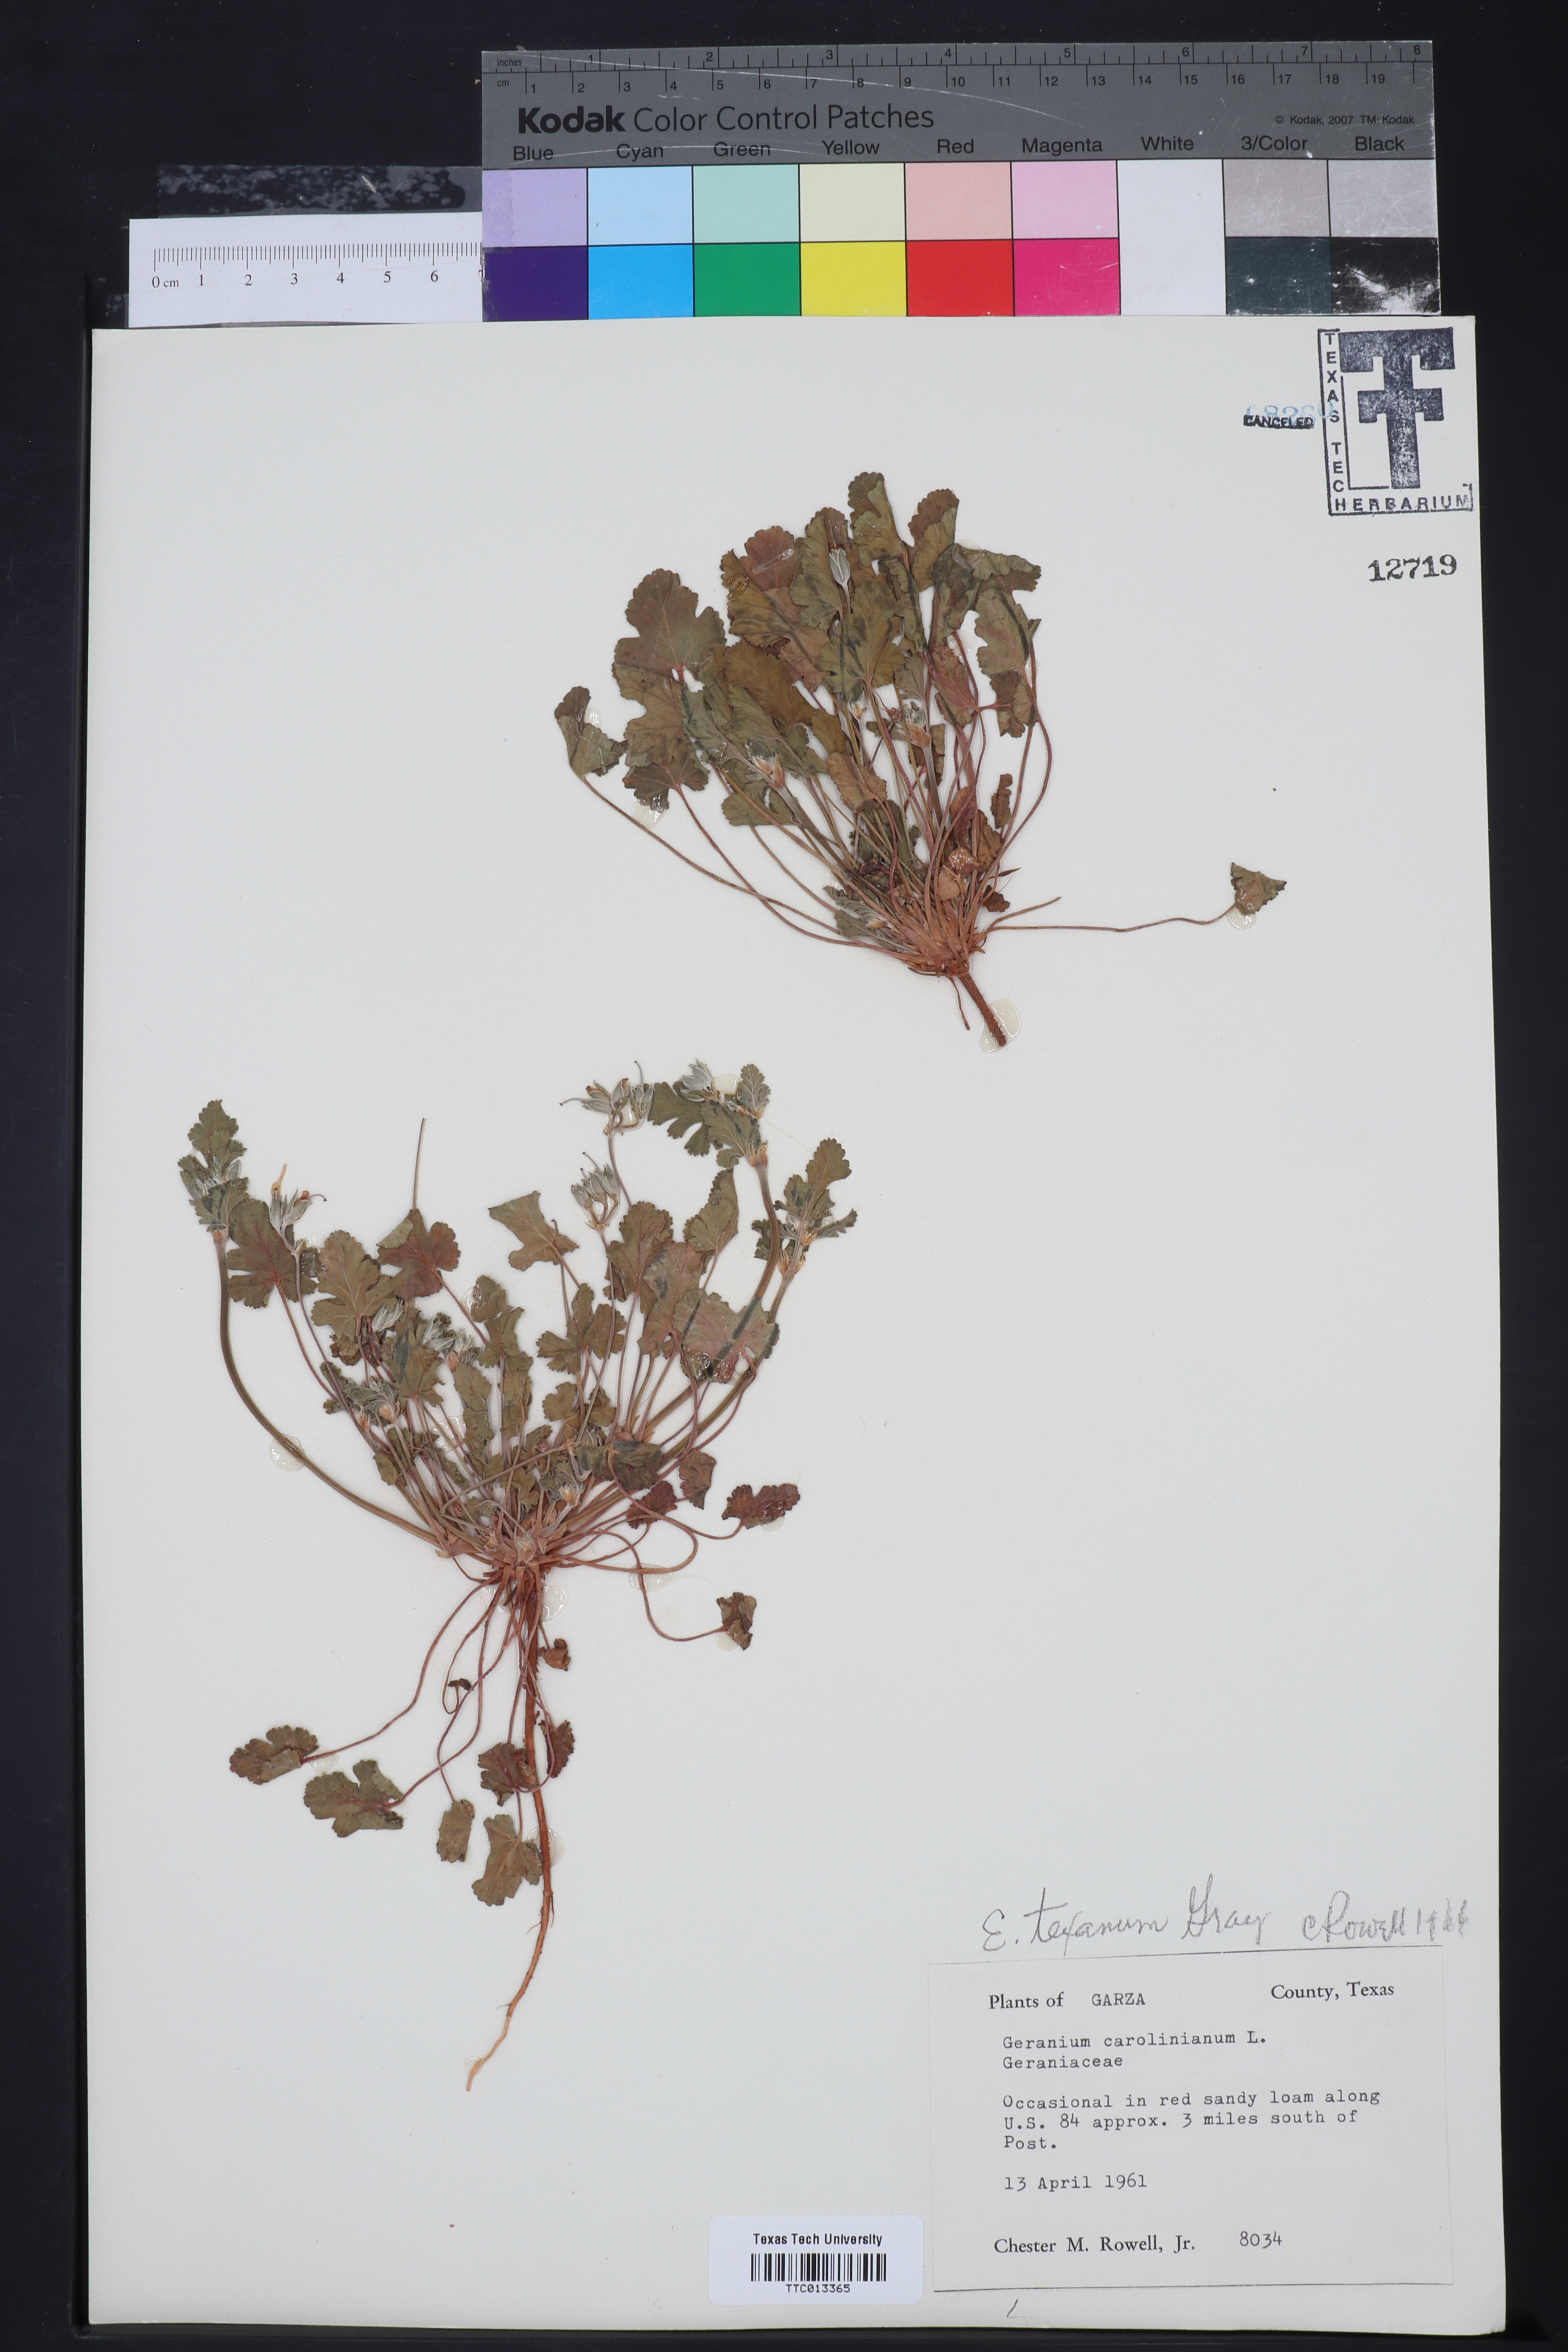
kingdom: Plantae
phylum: Tracheophyta
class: Magnoliopsida
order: Geraniales
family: Geraniaceae
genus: Erodium
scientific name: Erodium texanum
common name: Texas stork's-bill
